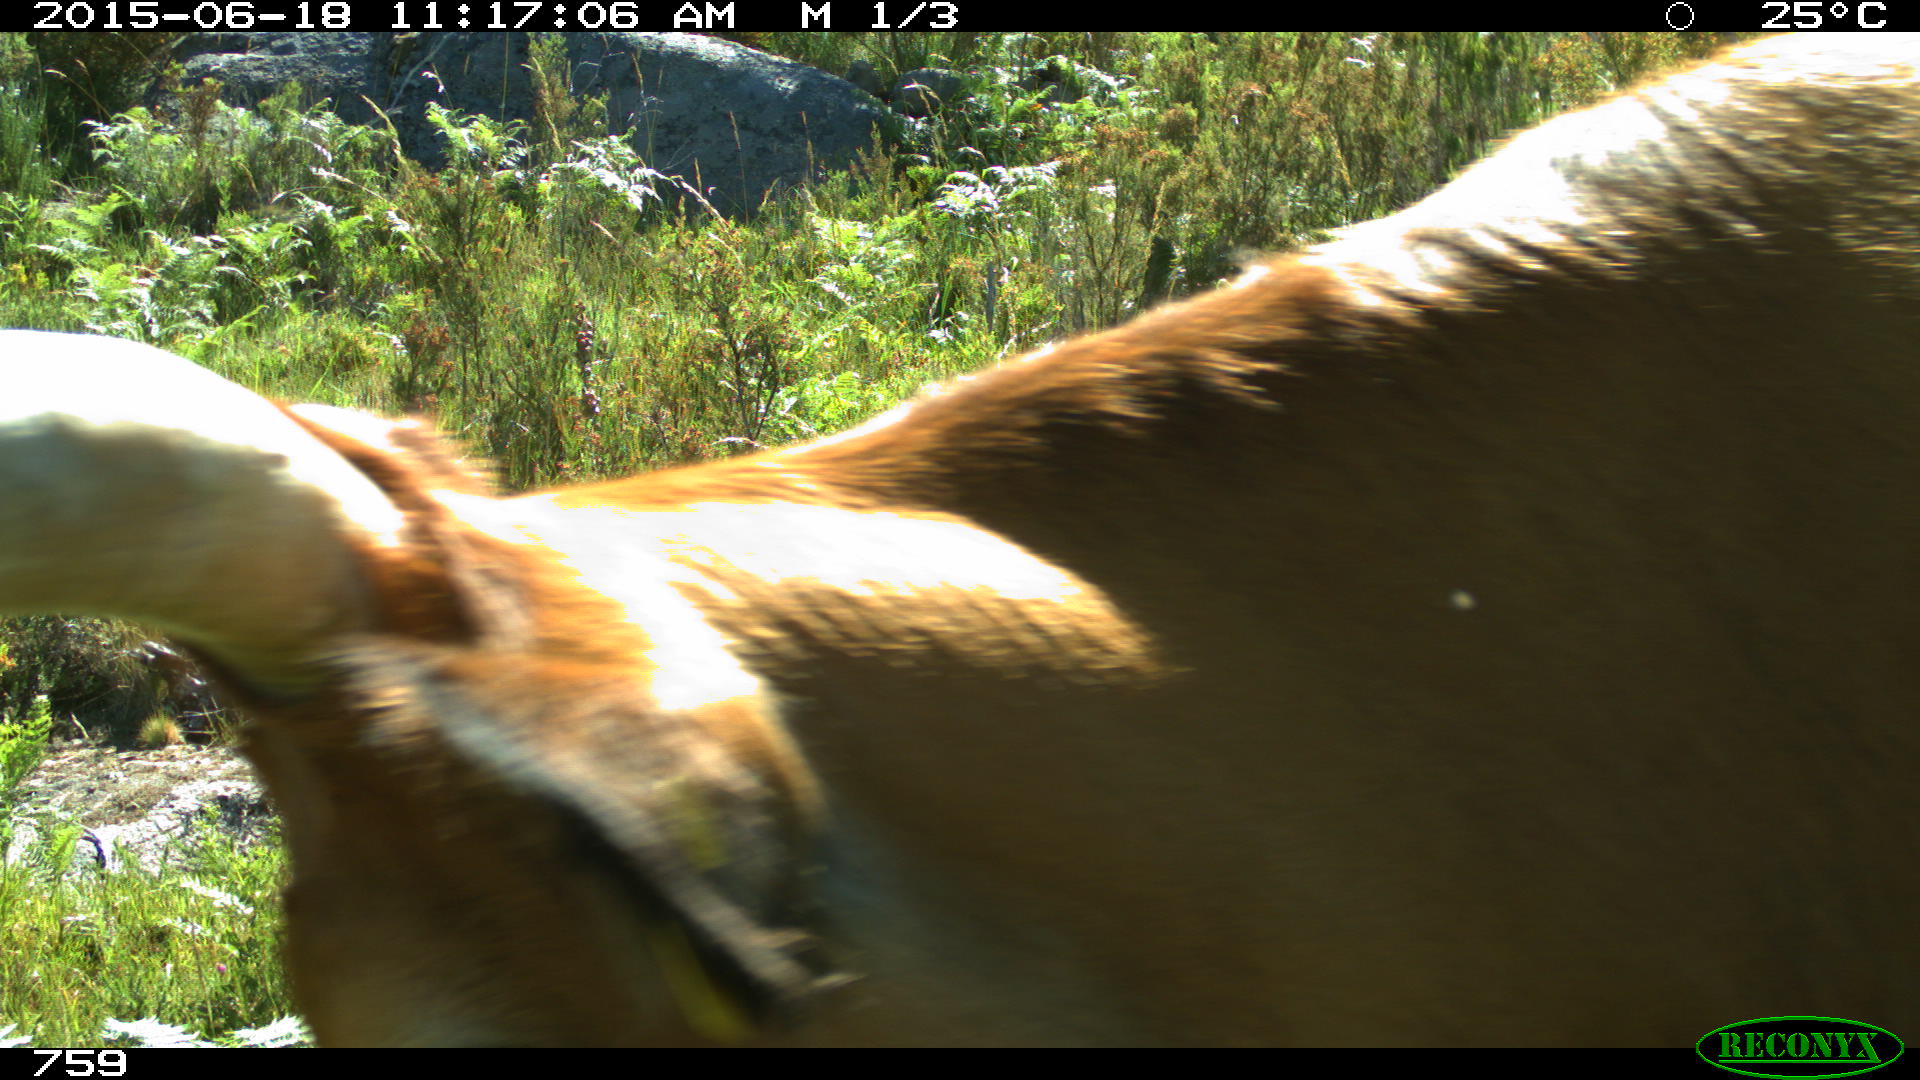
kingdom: Animalia
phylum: Chordata
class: Mammalia
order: Artiodactyla
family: Bovidae
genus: Bos
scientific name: Bos taurus
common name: Domesticated cattle
